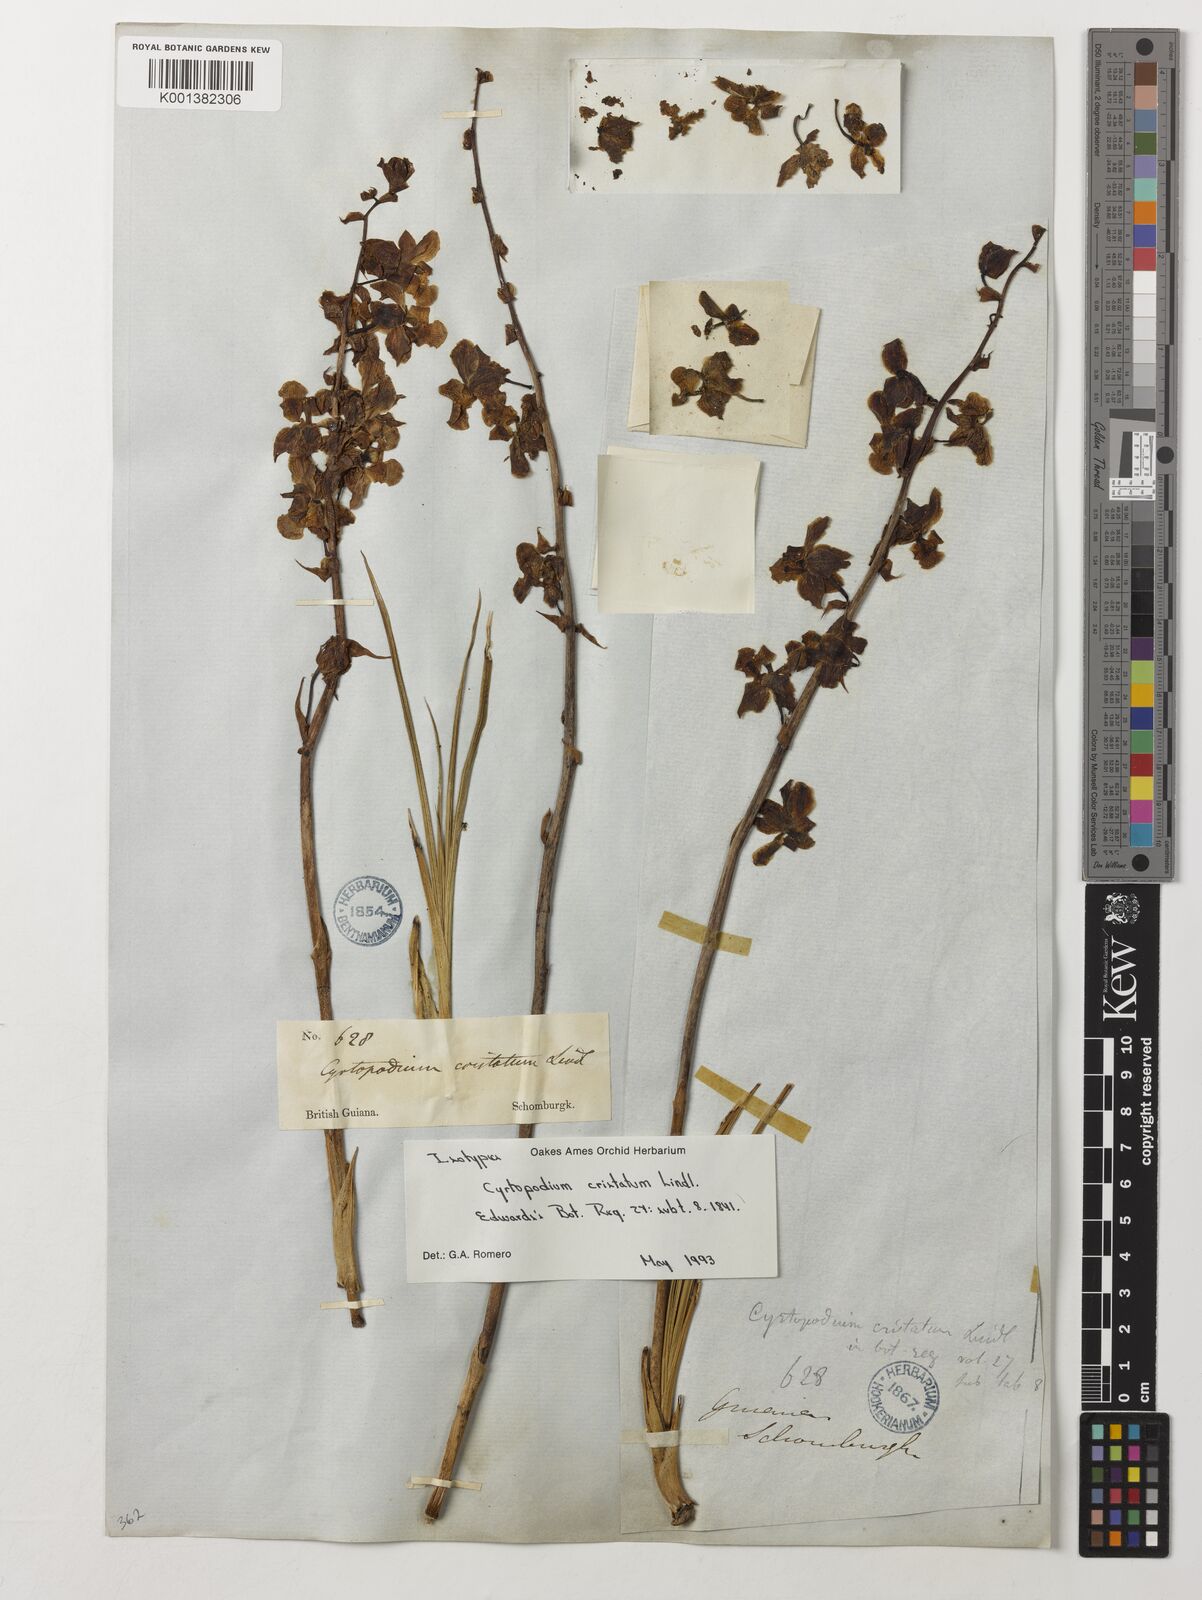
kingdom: Plantae
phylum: Tracheophyta
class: Liliopsida
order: Asparagales
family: Orchidaceae
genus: Cyrtopodium
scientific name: Cyrtopodium cristatum
